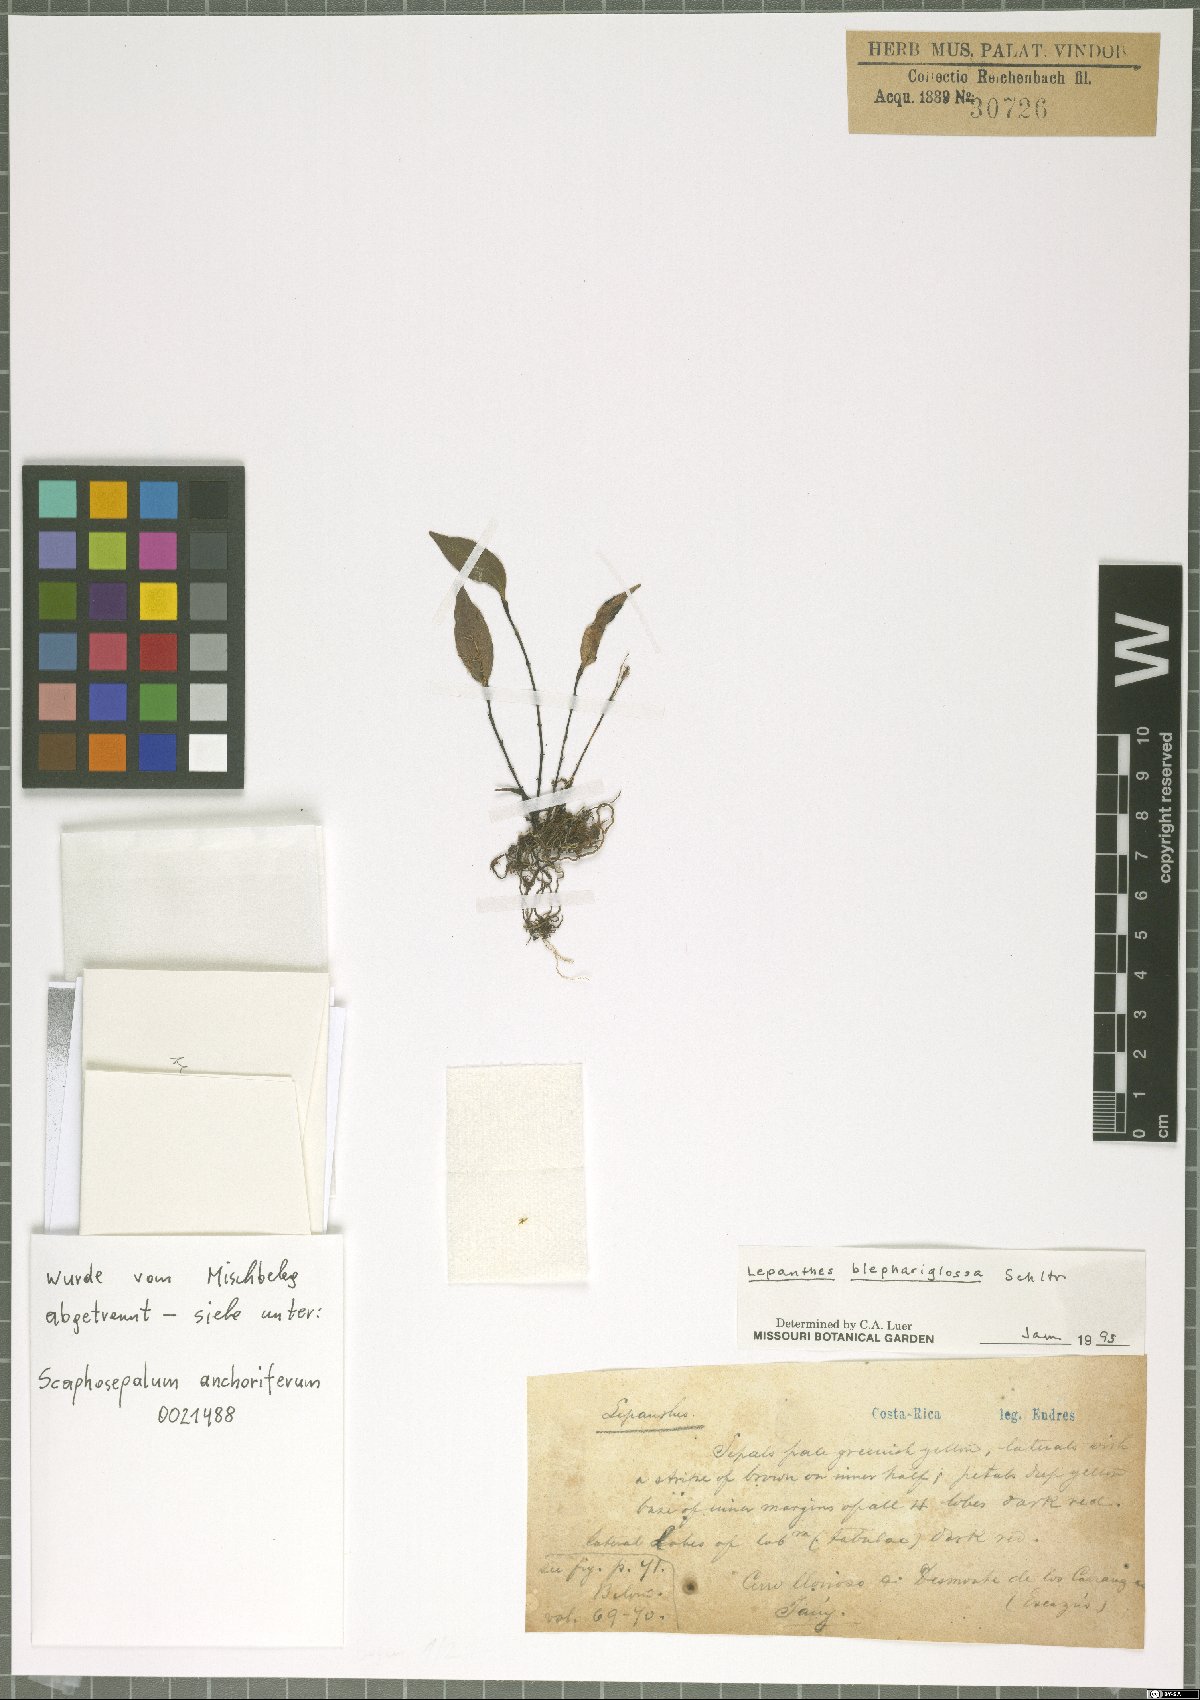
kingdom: Plantae
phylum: Tracheophyta
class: Liliopsida
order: Asparagales
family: Orchidaceae
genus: Lepanthes
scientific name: Lepanthes blephariglossa
